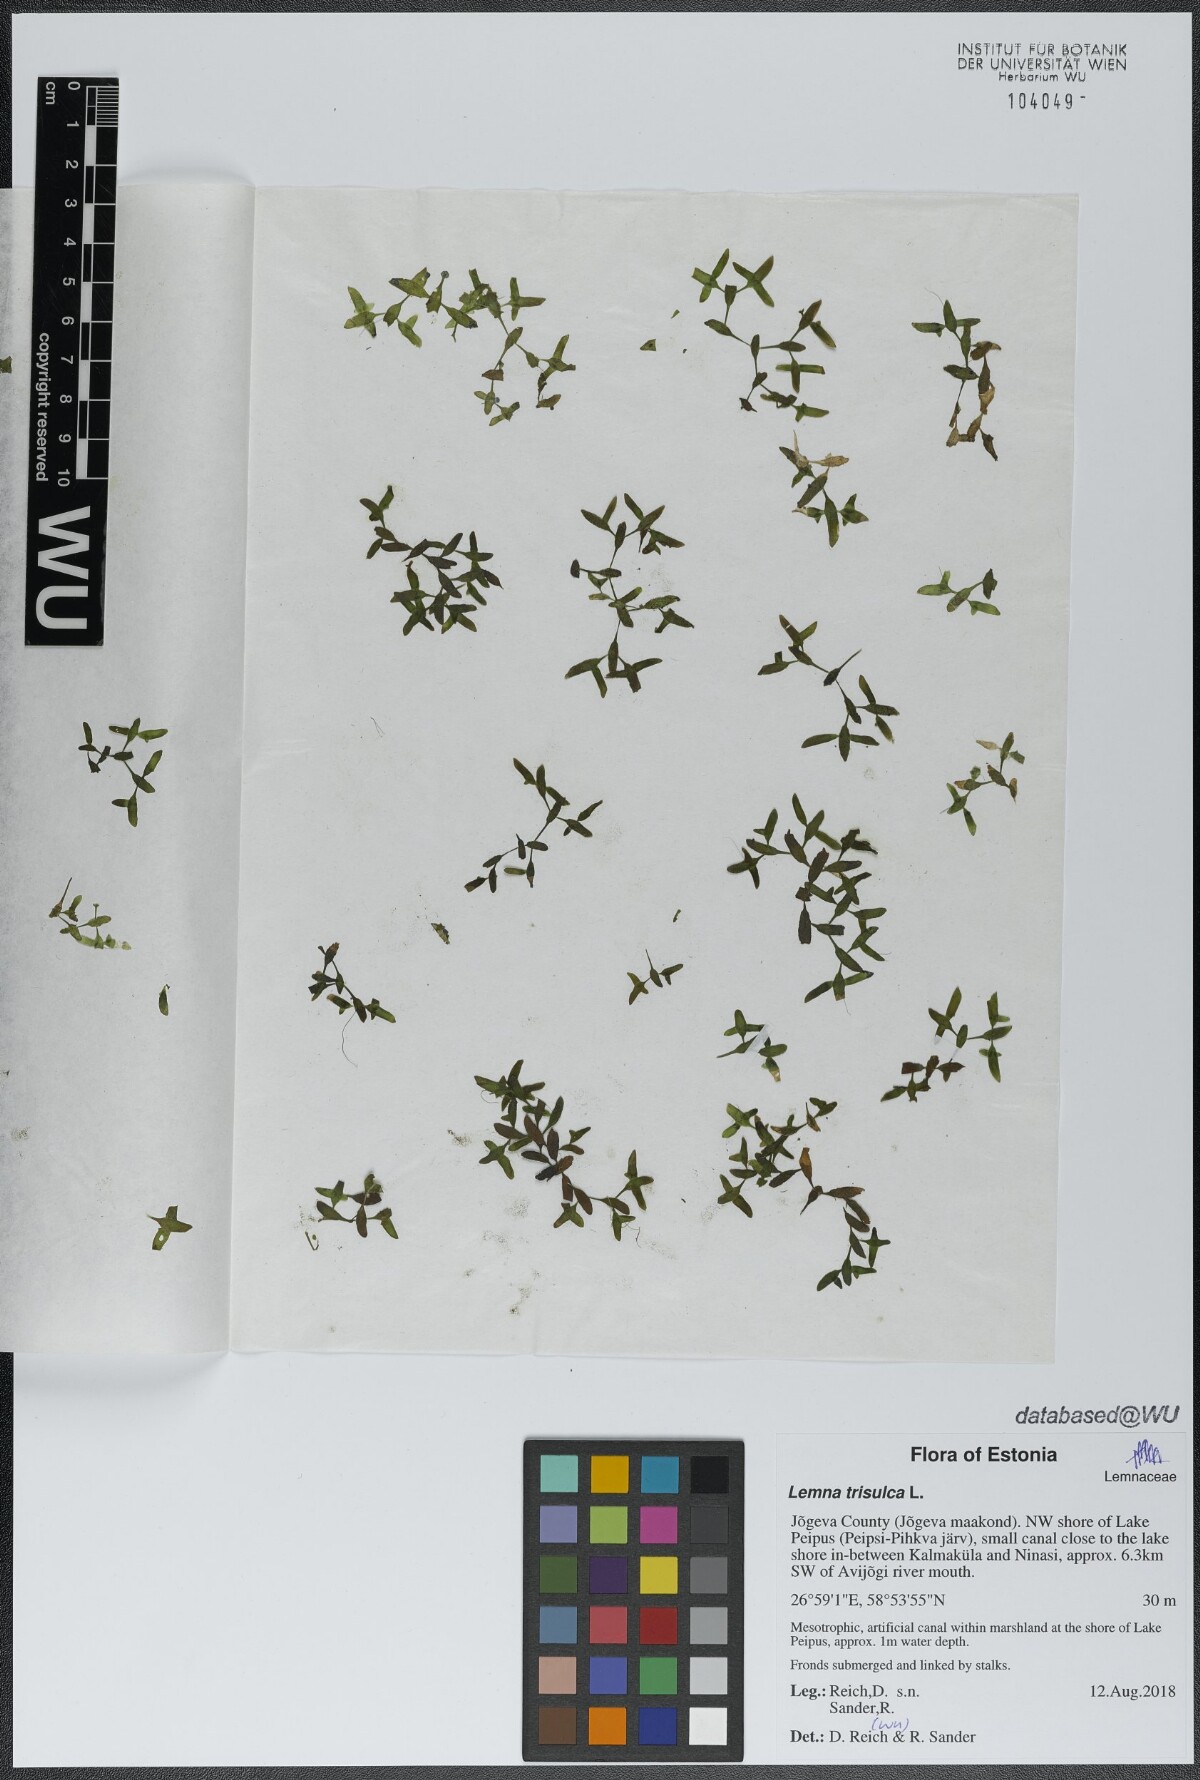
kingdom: Plantae
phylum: Tracheophyta
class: Liliopsida
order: Alismatales
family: Araceae
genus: Lemna
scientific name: Lemna trisulca
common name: Ivy-leaved duckweed
